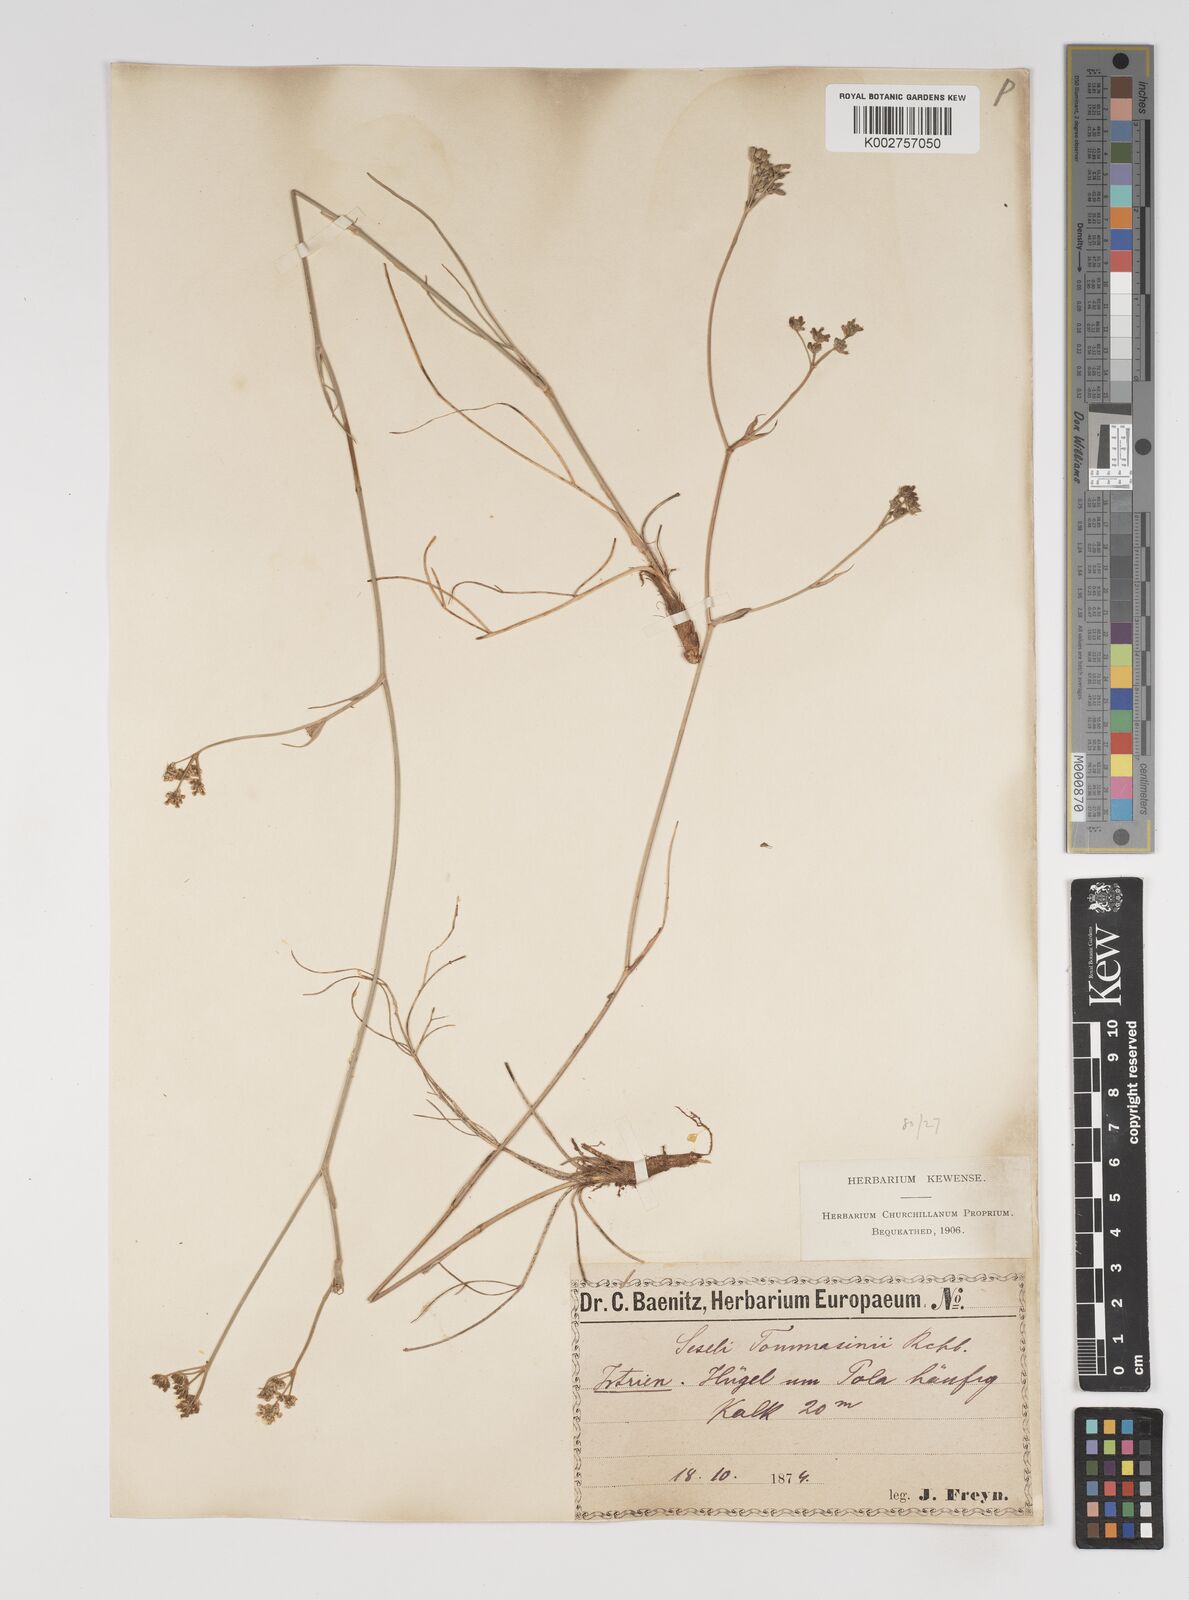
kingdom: Plantae
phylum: Tracheophyta
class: Magnoliopsida
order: Apiales
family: Apiaceae
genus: Seseli
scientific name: Seseli montanum
